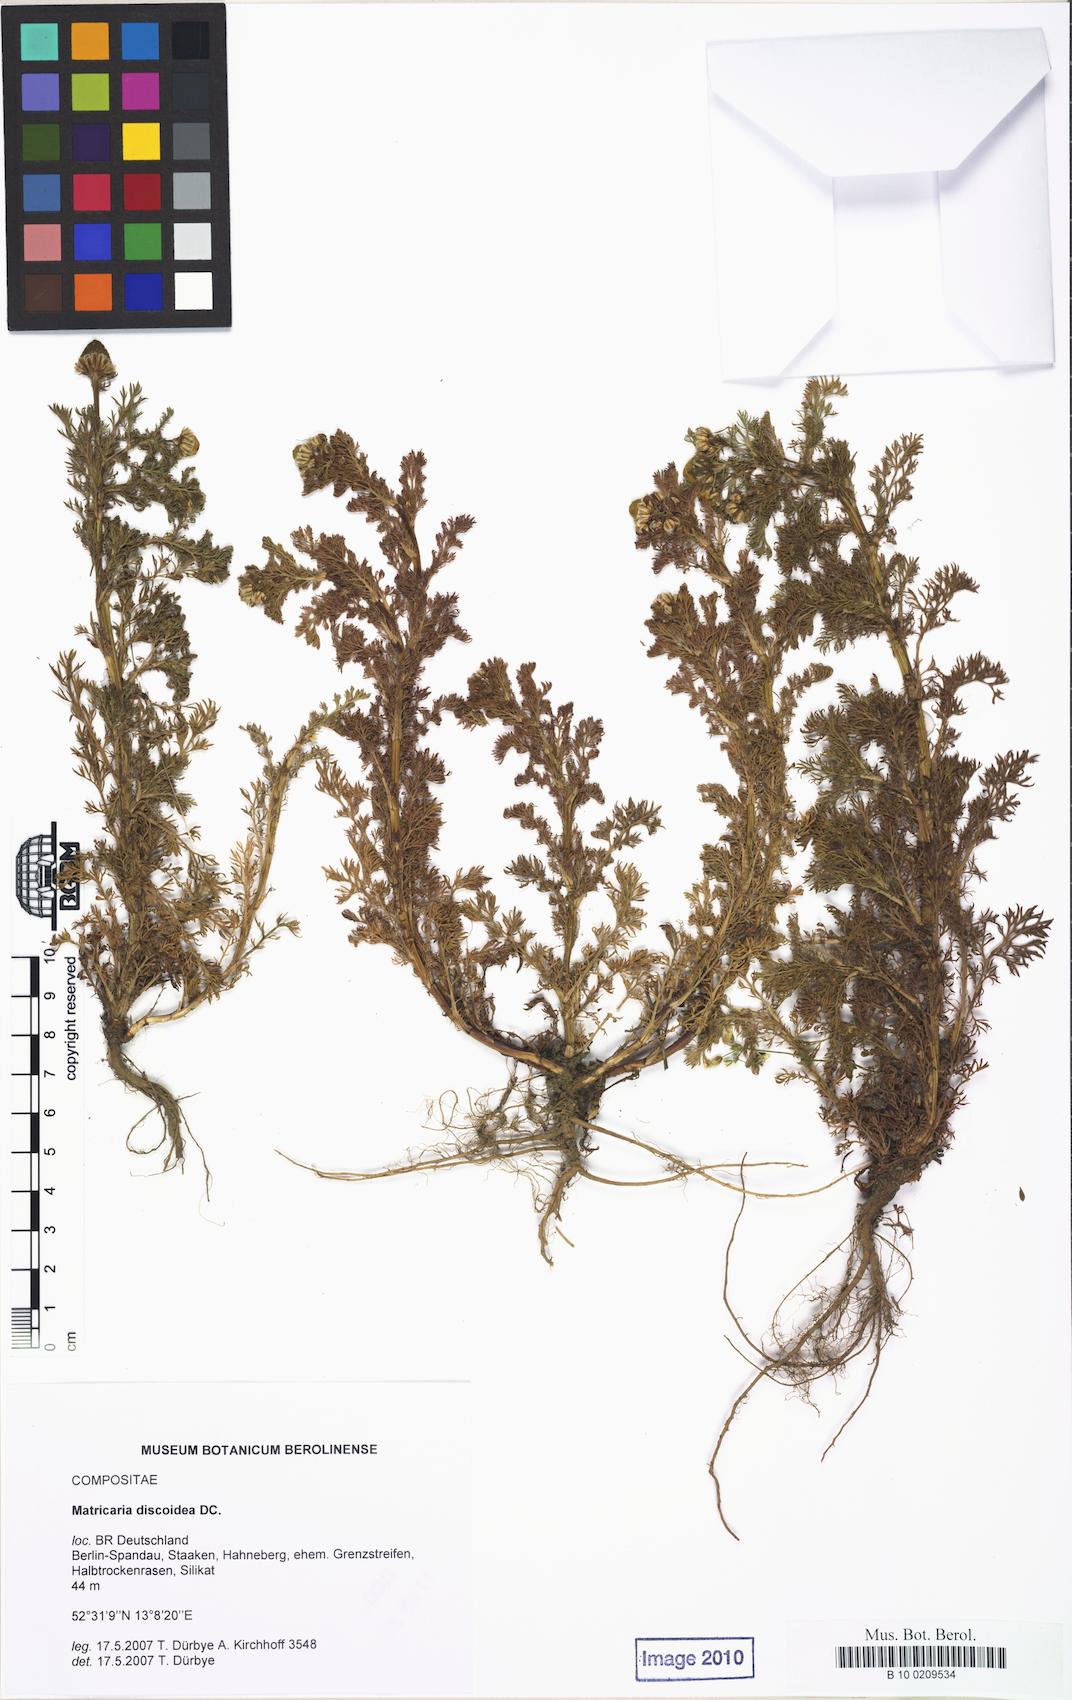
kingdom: Plantae
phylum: Tracheophyta
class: Magnoliopsida
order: Asterales
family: Asteraceae
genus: Matricaria
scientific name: Matricaria discoidea
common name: Disc mayweed
